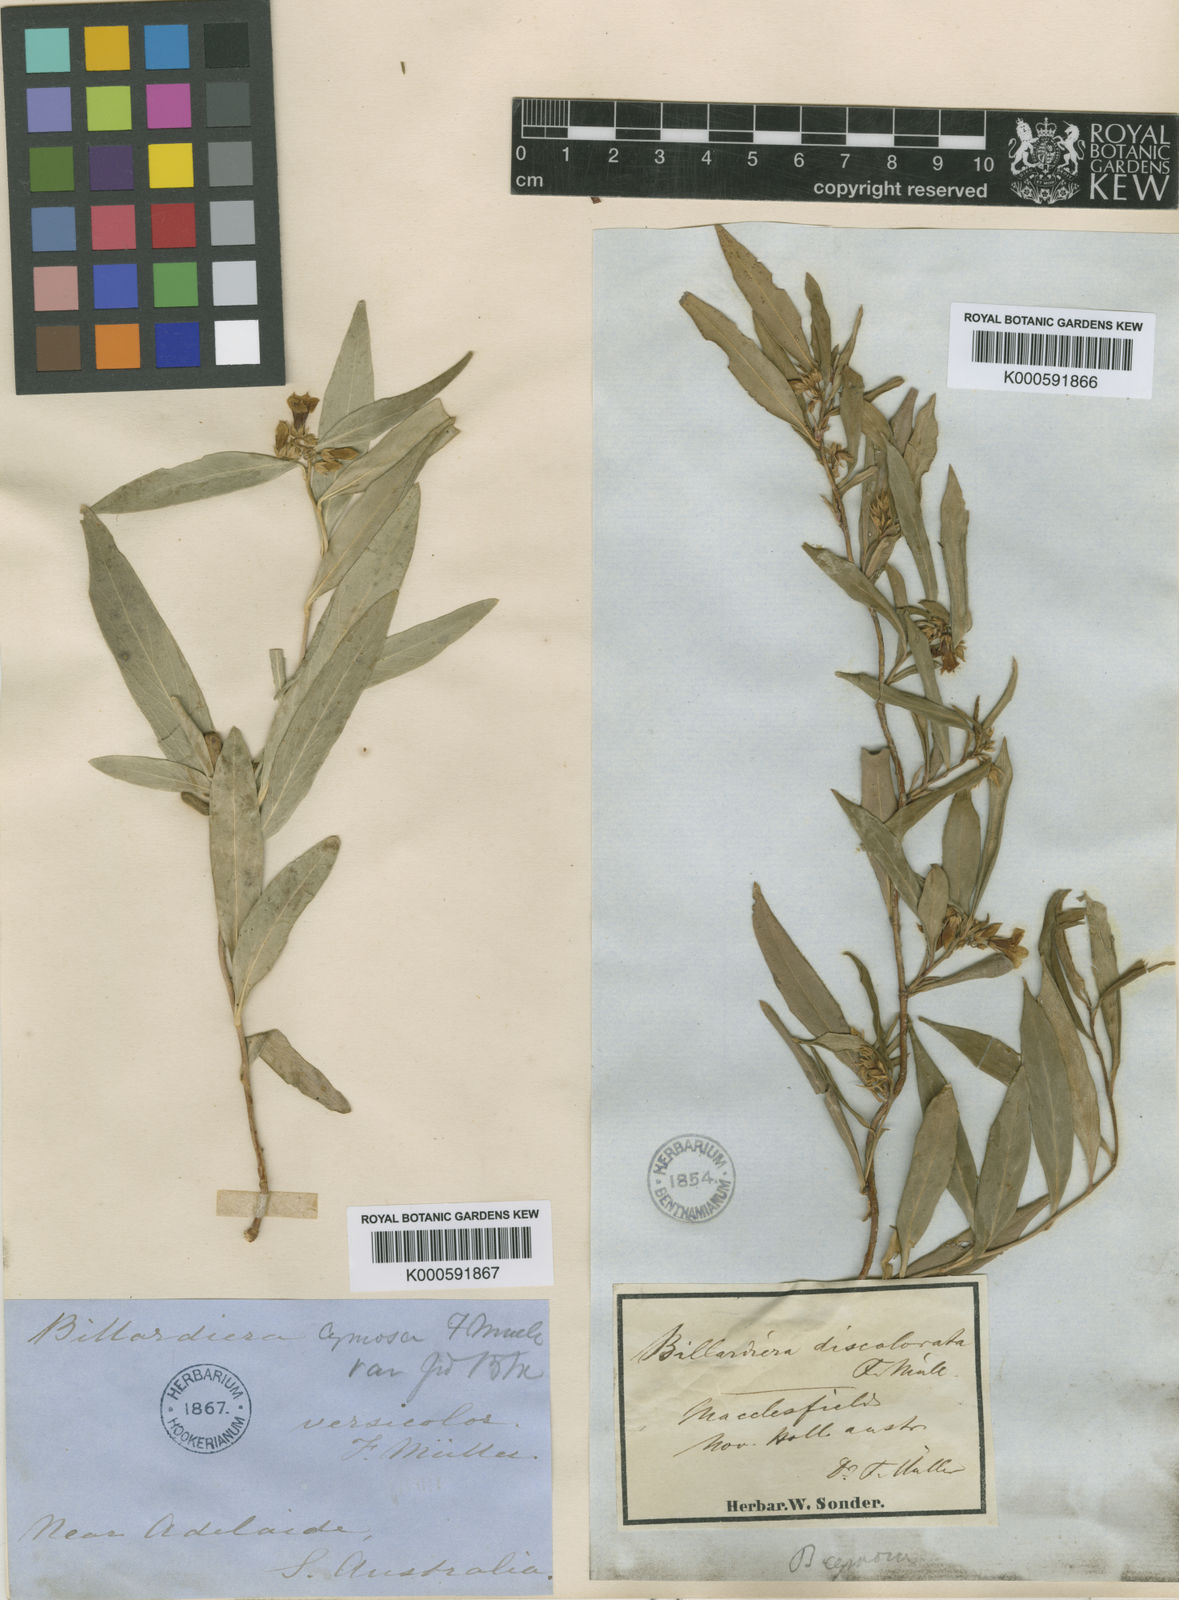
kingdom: Plantae
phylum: Tracheophyta
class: Magnoliopsida
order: Apiales
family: Pittosporaceae
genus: Billardiera
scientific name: Billardiera sericophora
